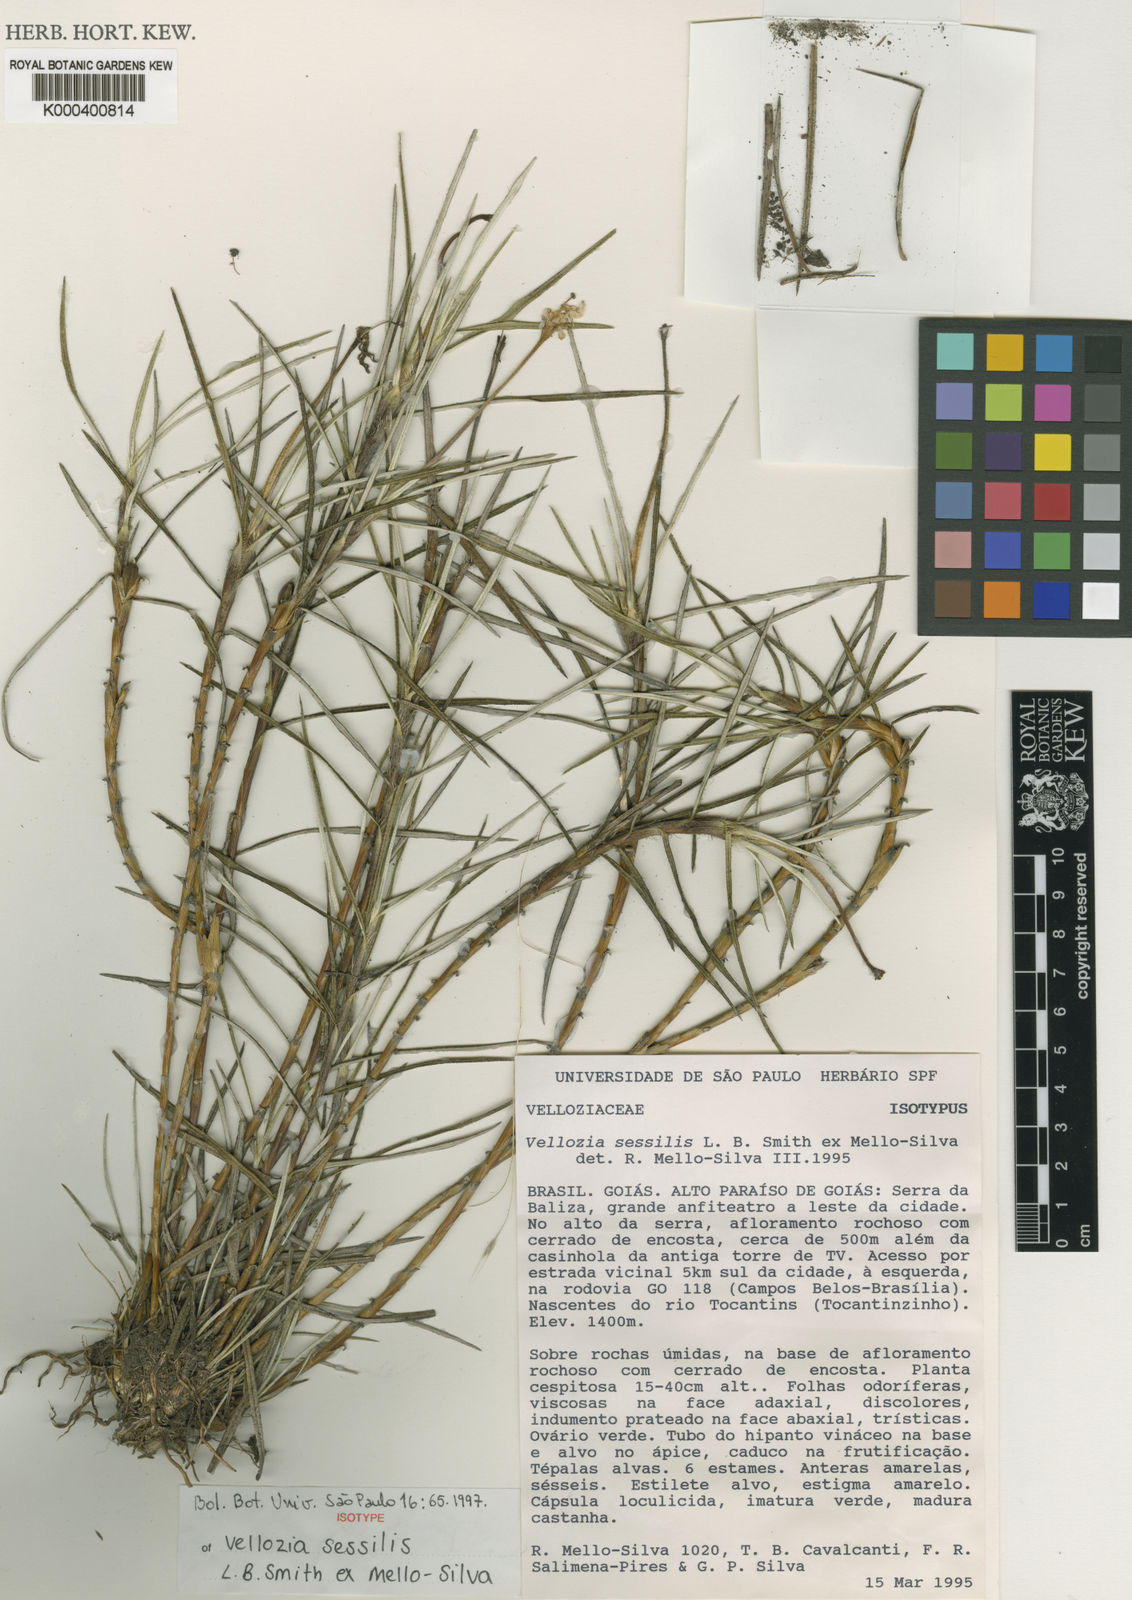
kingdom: Plantae
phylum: Tracheophyta
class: Liliopsida
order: Pandanales
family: Velloziaceae
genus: Vellozia
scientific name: Vellozia sessilis
